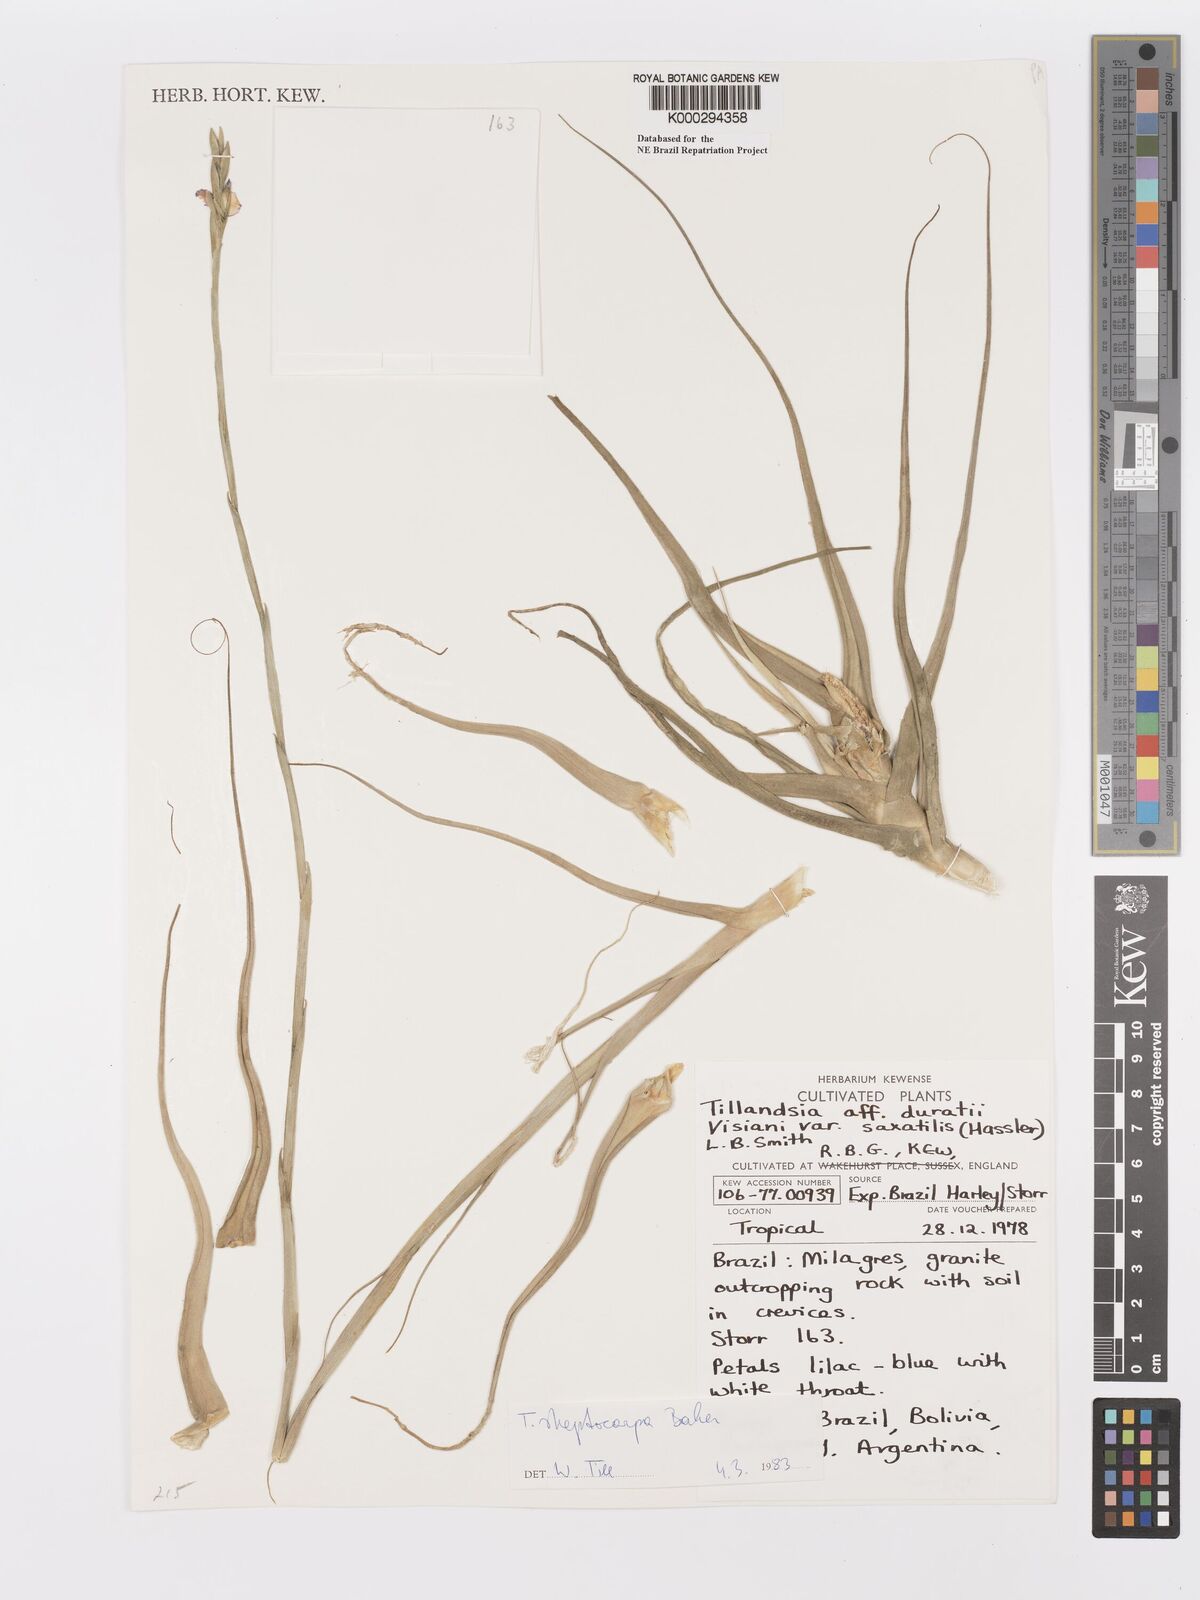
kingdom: Plantae
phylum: Tracheophyta
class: Liliopsida
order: Poales
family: Bromeliaceae
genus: Tillandsia
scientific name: Tillandsia streptocarpa
